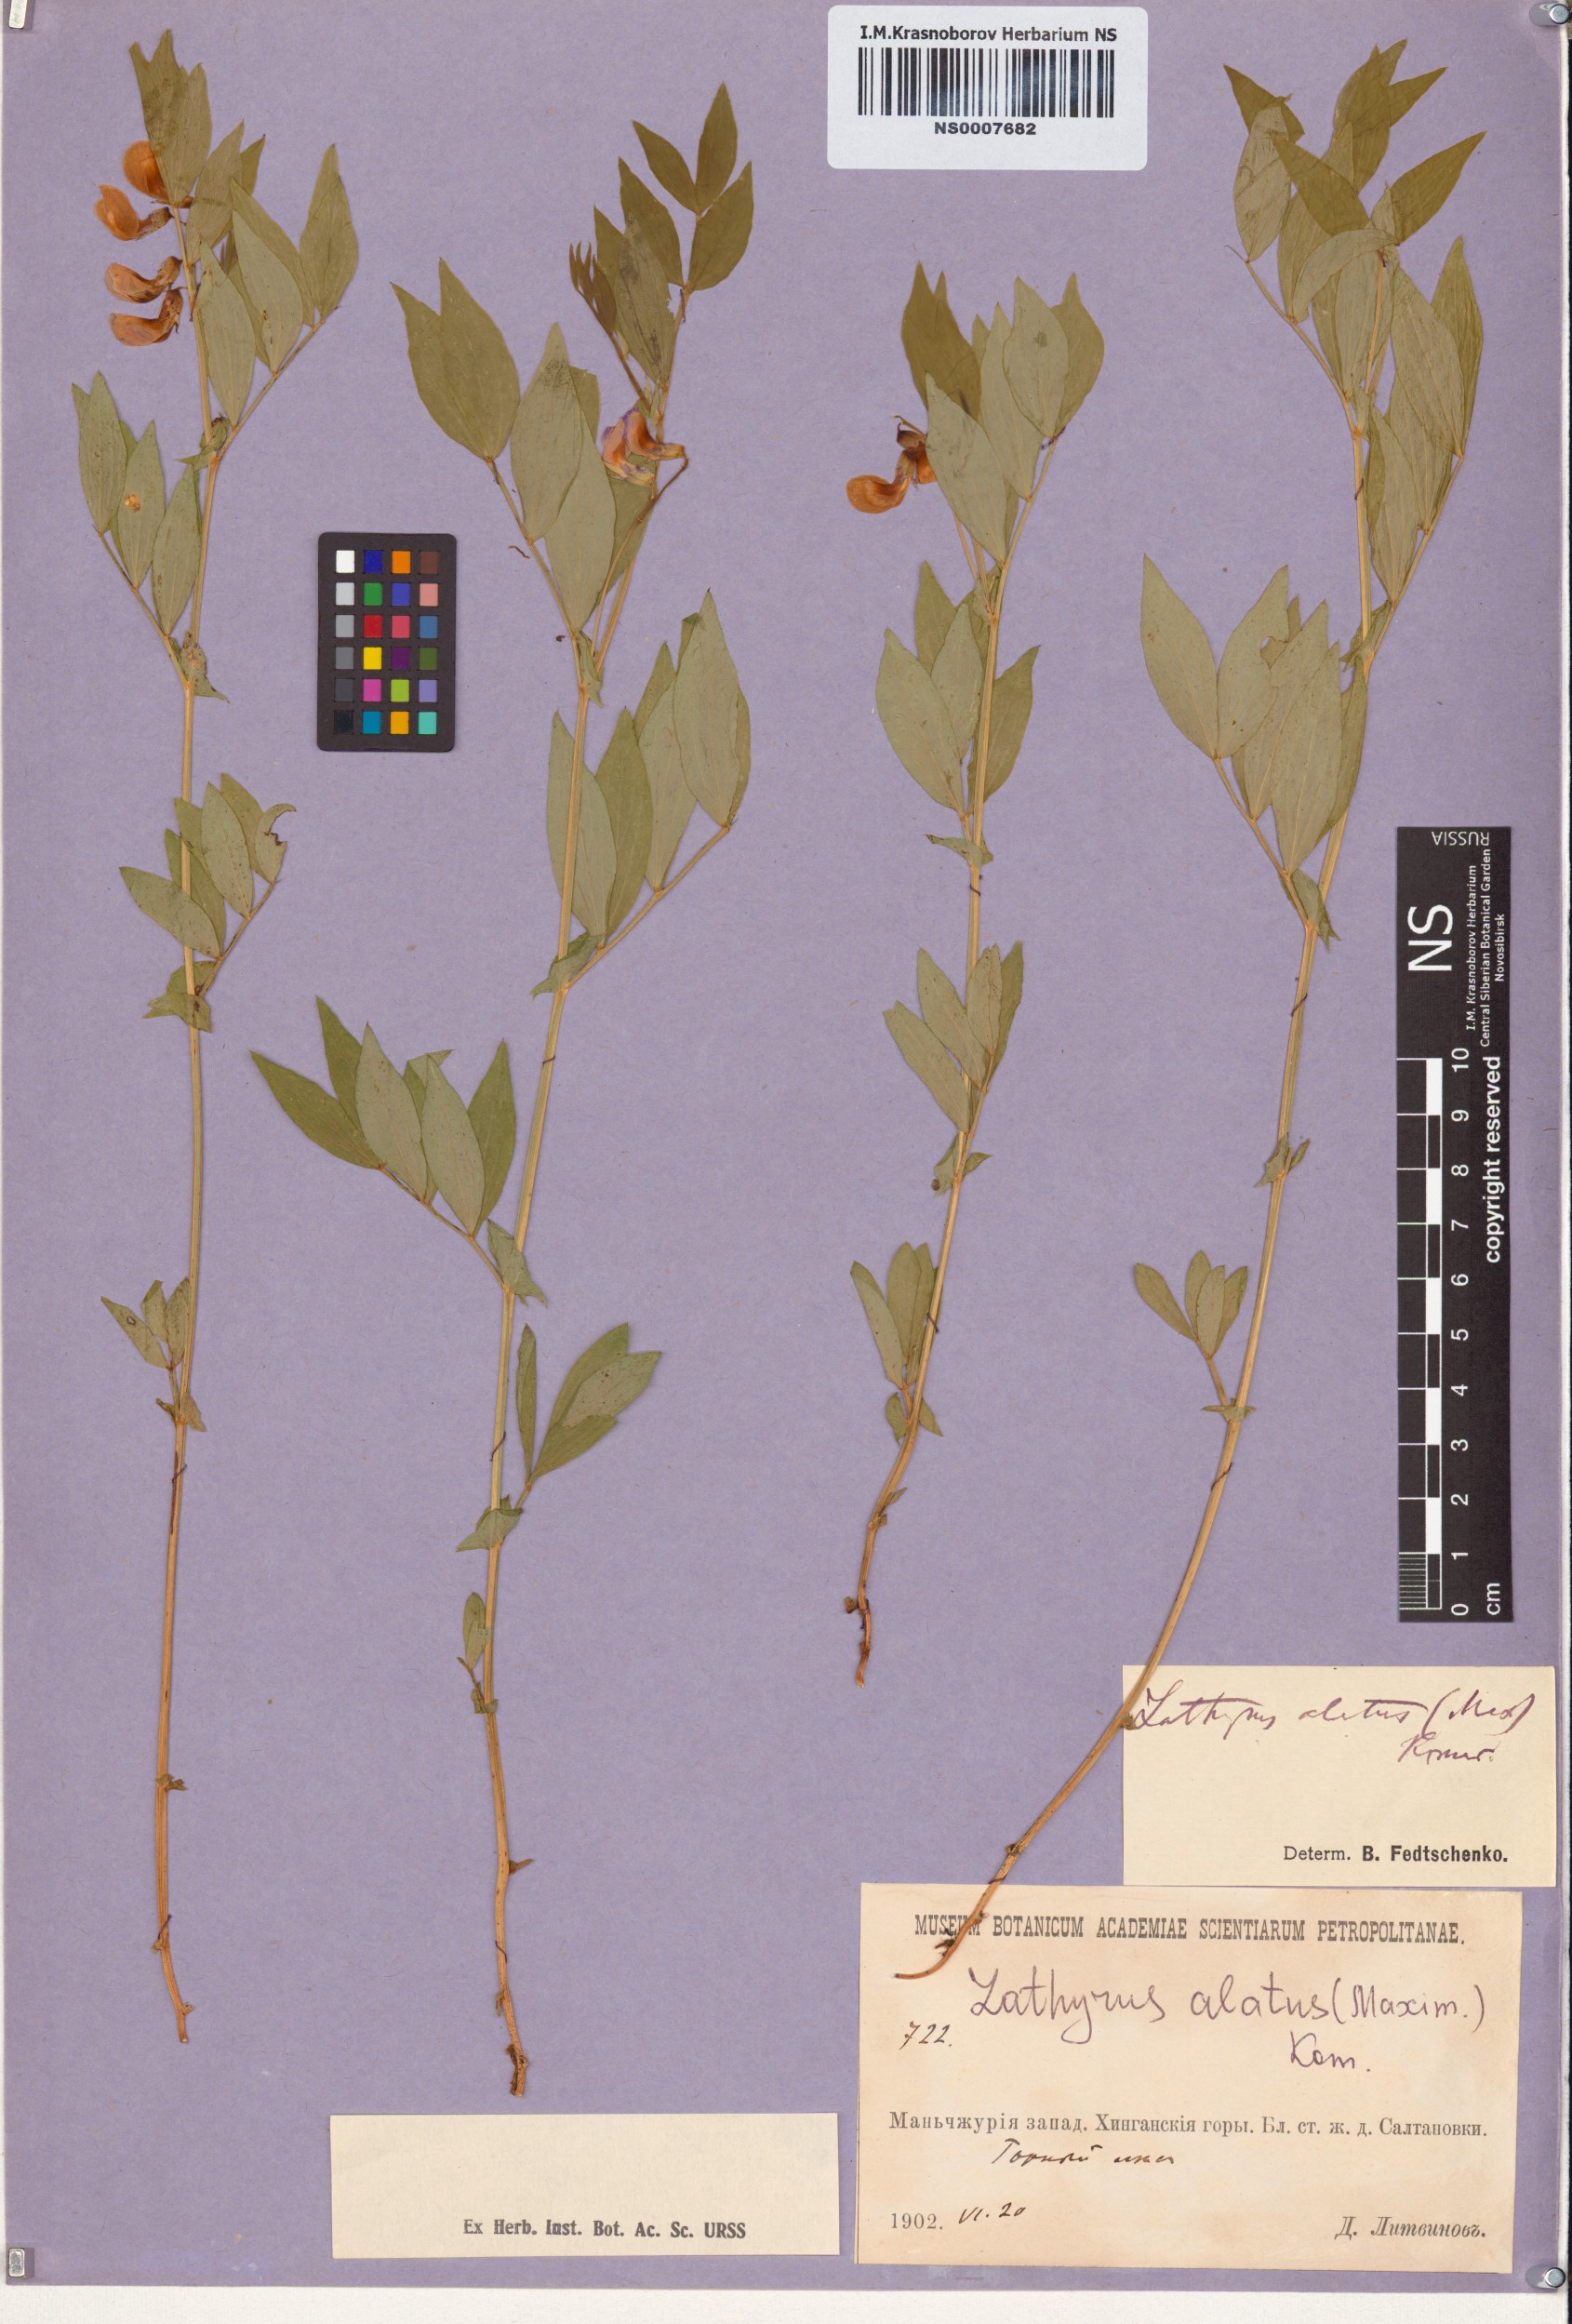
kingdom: Plantae
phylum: Tracheophyta
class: Magnoliopsida
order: Fabales
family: Fabaceae
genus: Lathyrus
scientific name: Lathyrus komarovii
